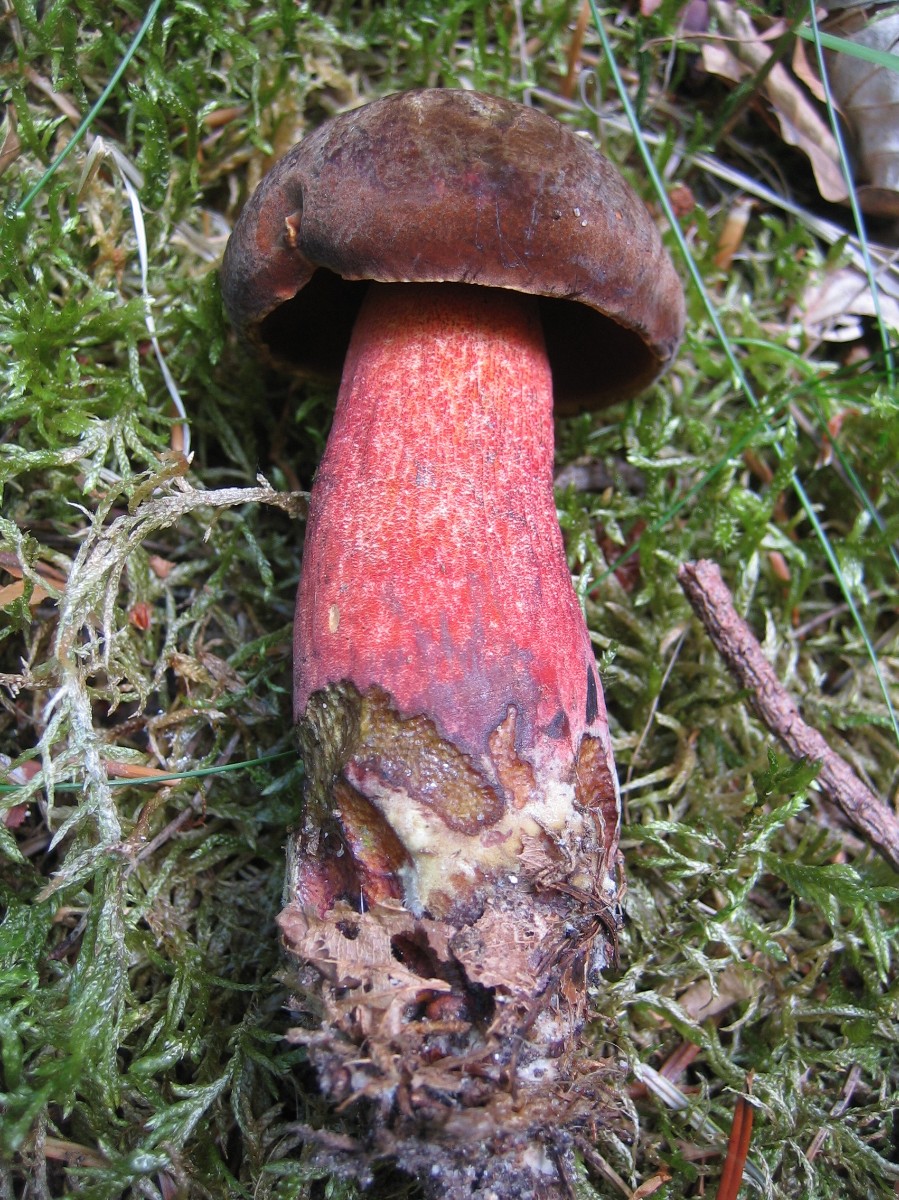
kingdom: Fungi
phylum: Basidiomycota
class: Agaricomycetes
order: Boletales
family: Boletaceae
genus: Neoboletus
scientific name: Neoboletus erythropus
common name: punktstokket indigorørhat
